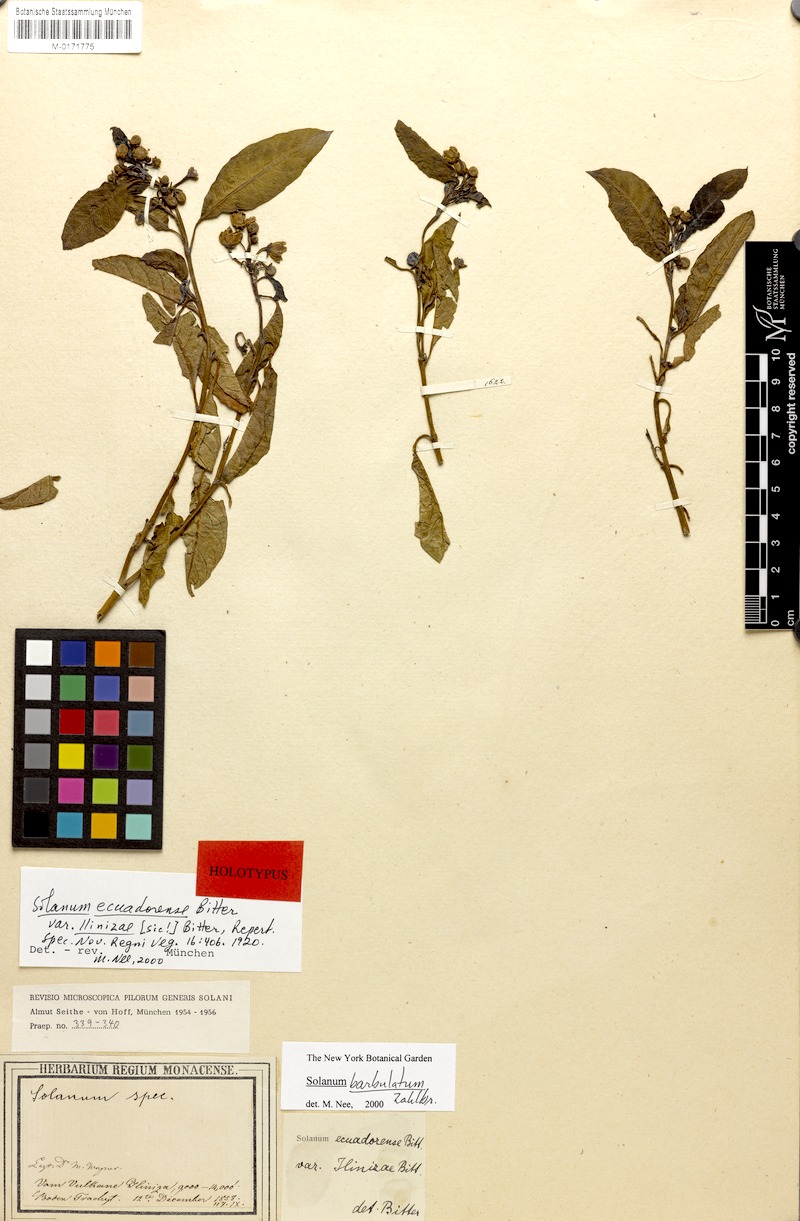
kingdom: Plantae
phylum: Tracheophyta
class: Magnoliopsida
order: Solanales
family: Solanaceae
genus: Solanum
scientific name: Solanum barbulatum
